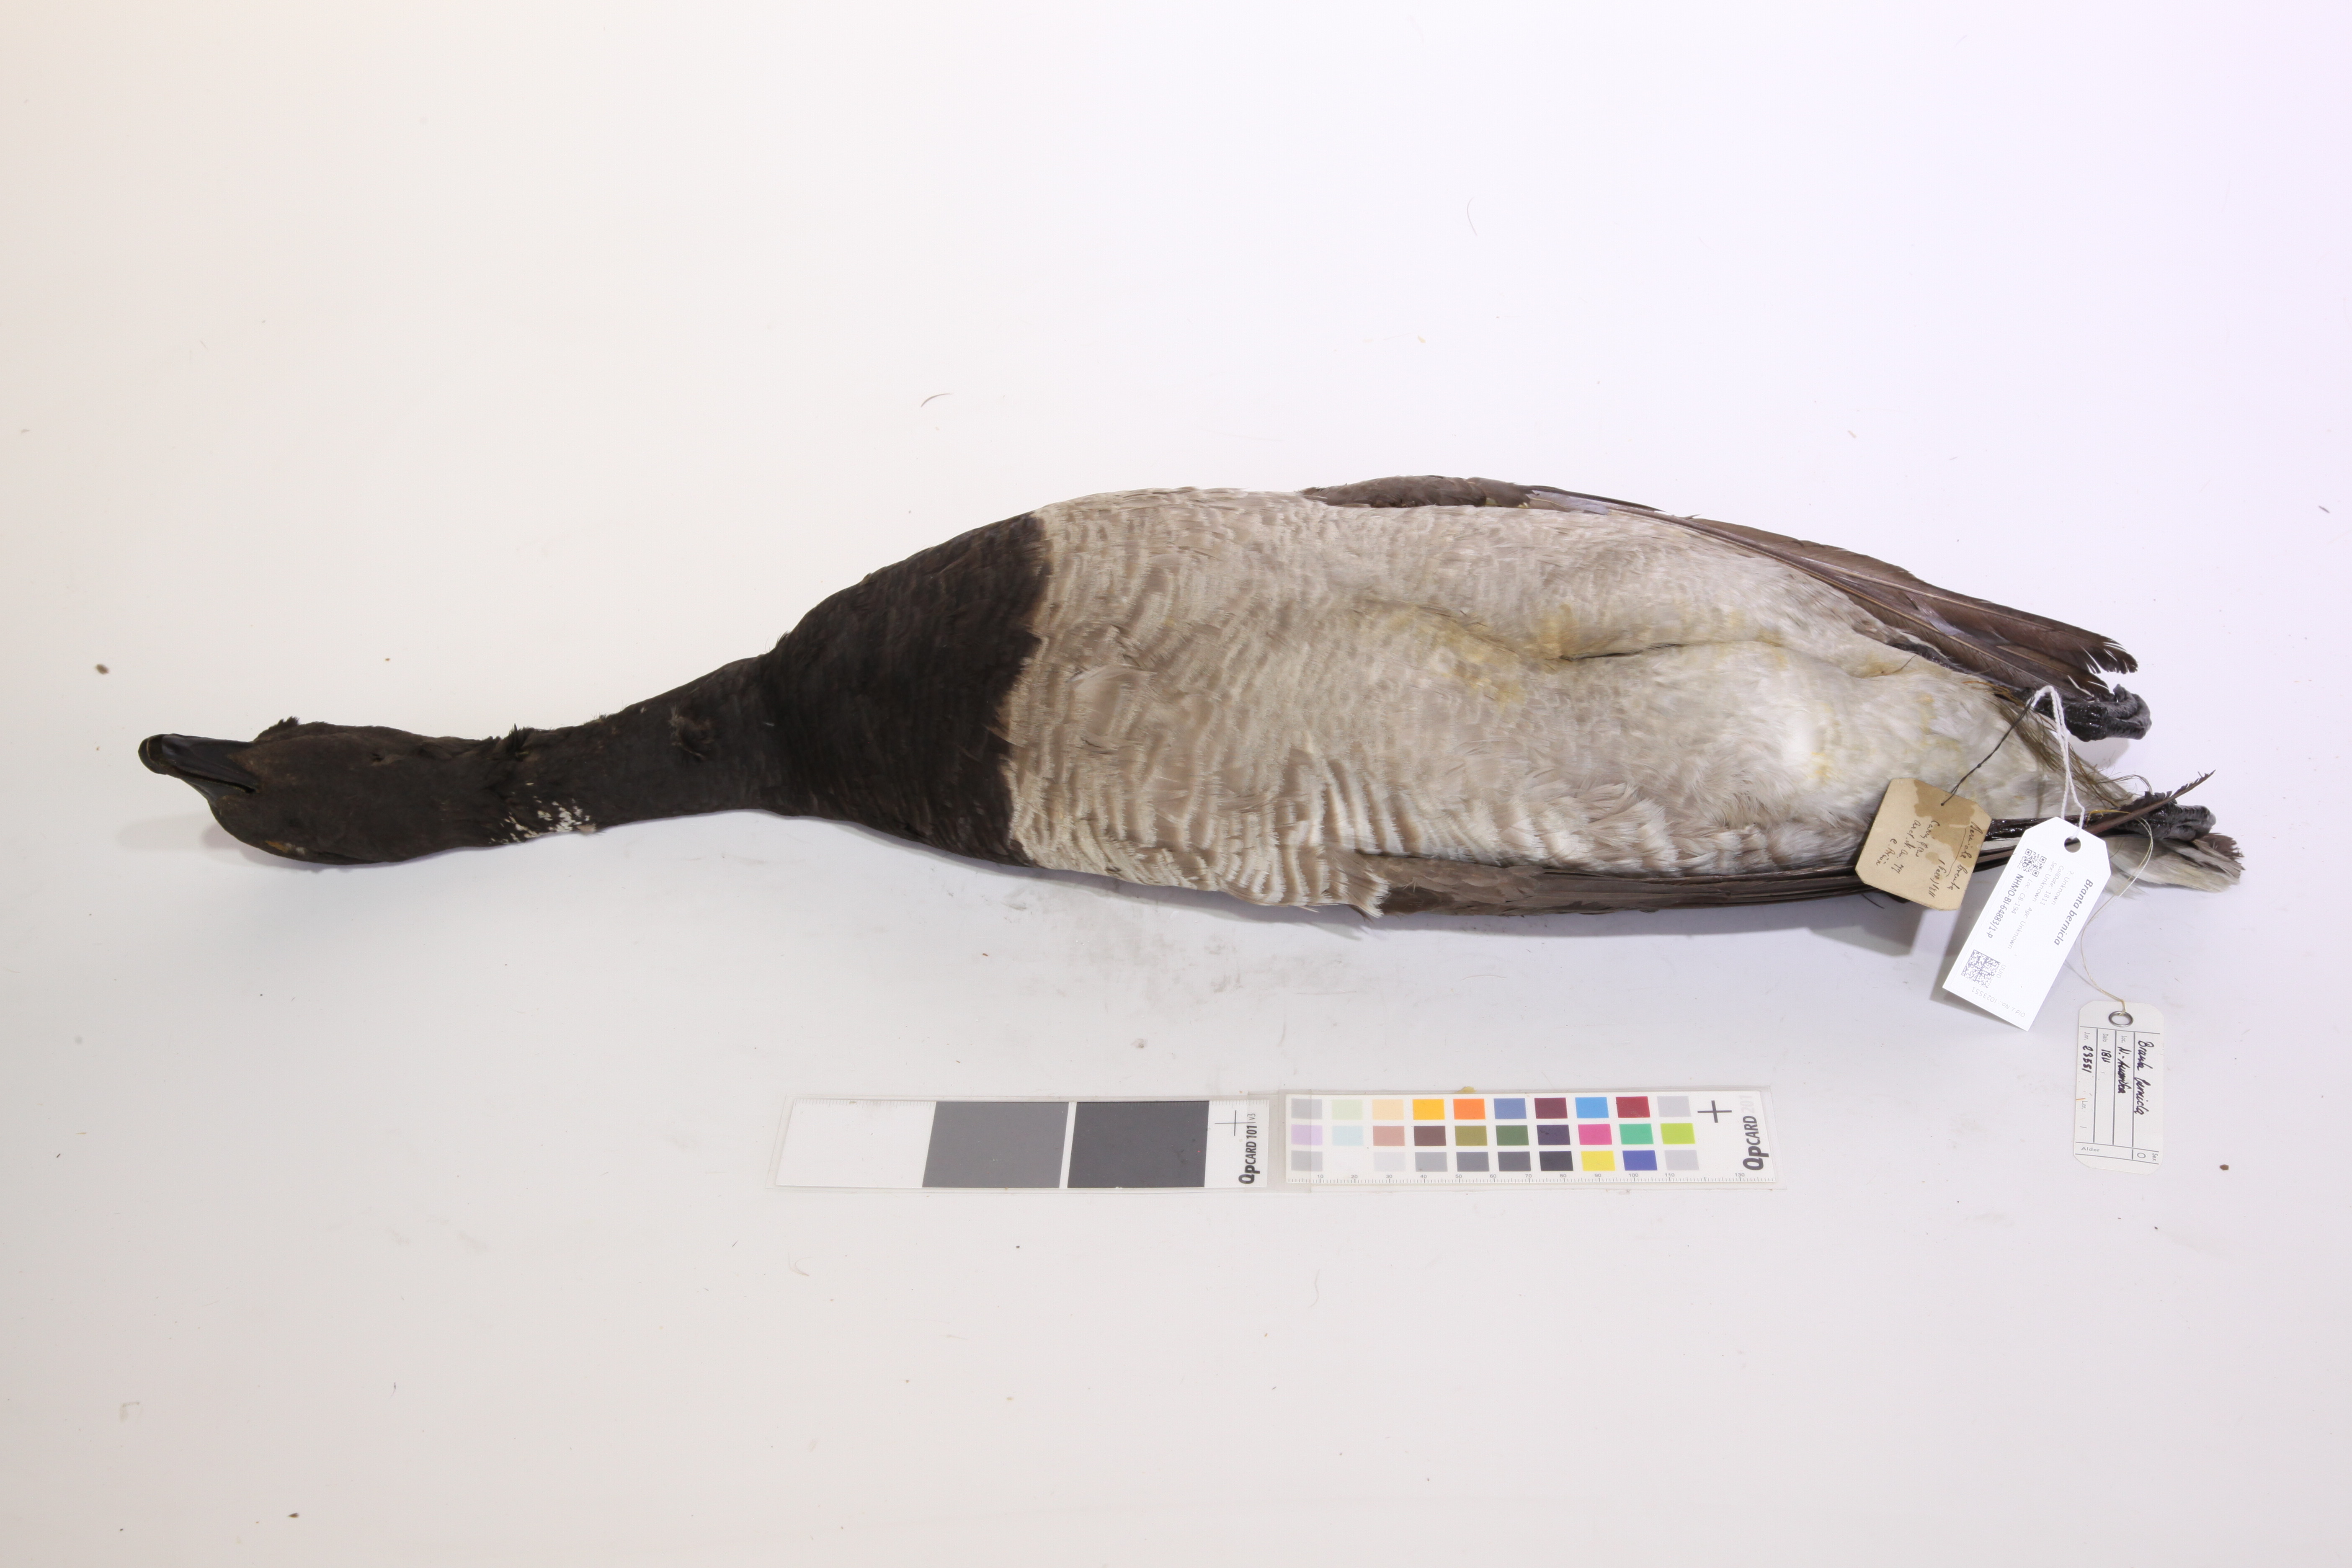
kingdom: Animalia
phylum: Chordata
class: Aves
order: Anseriformes
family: Anatidae
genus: Branta
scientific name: Branta bernicla
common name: Brant goose
